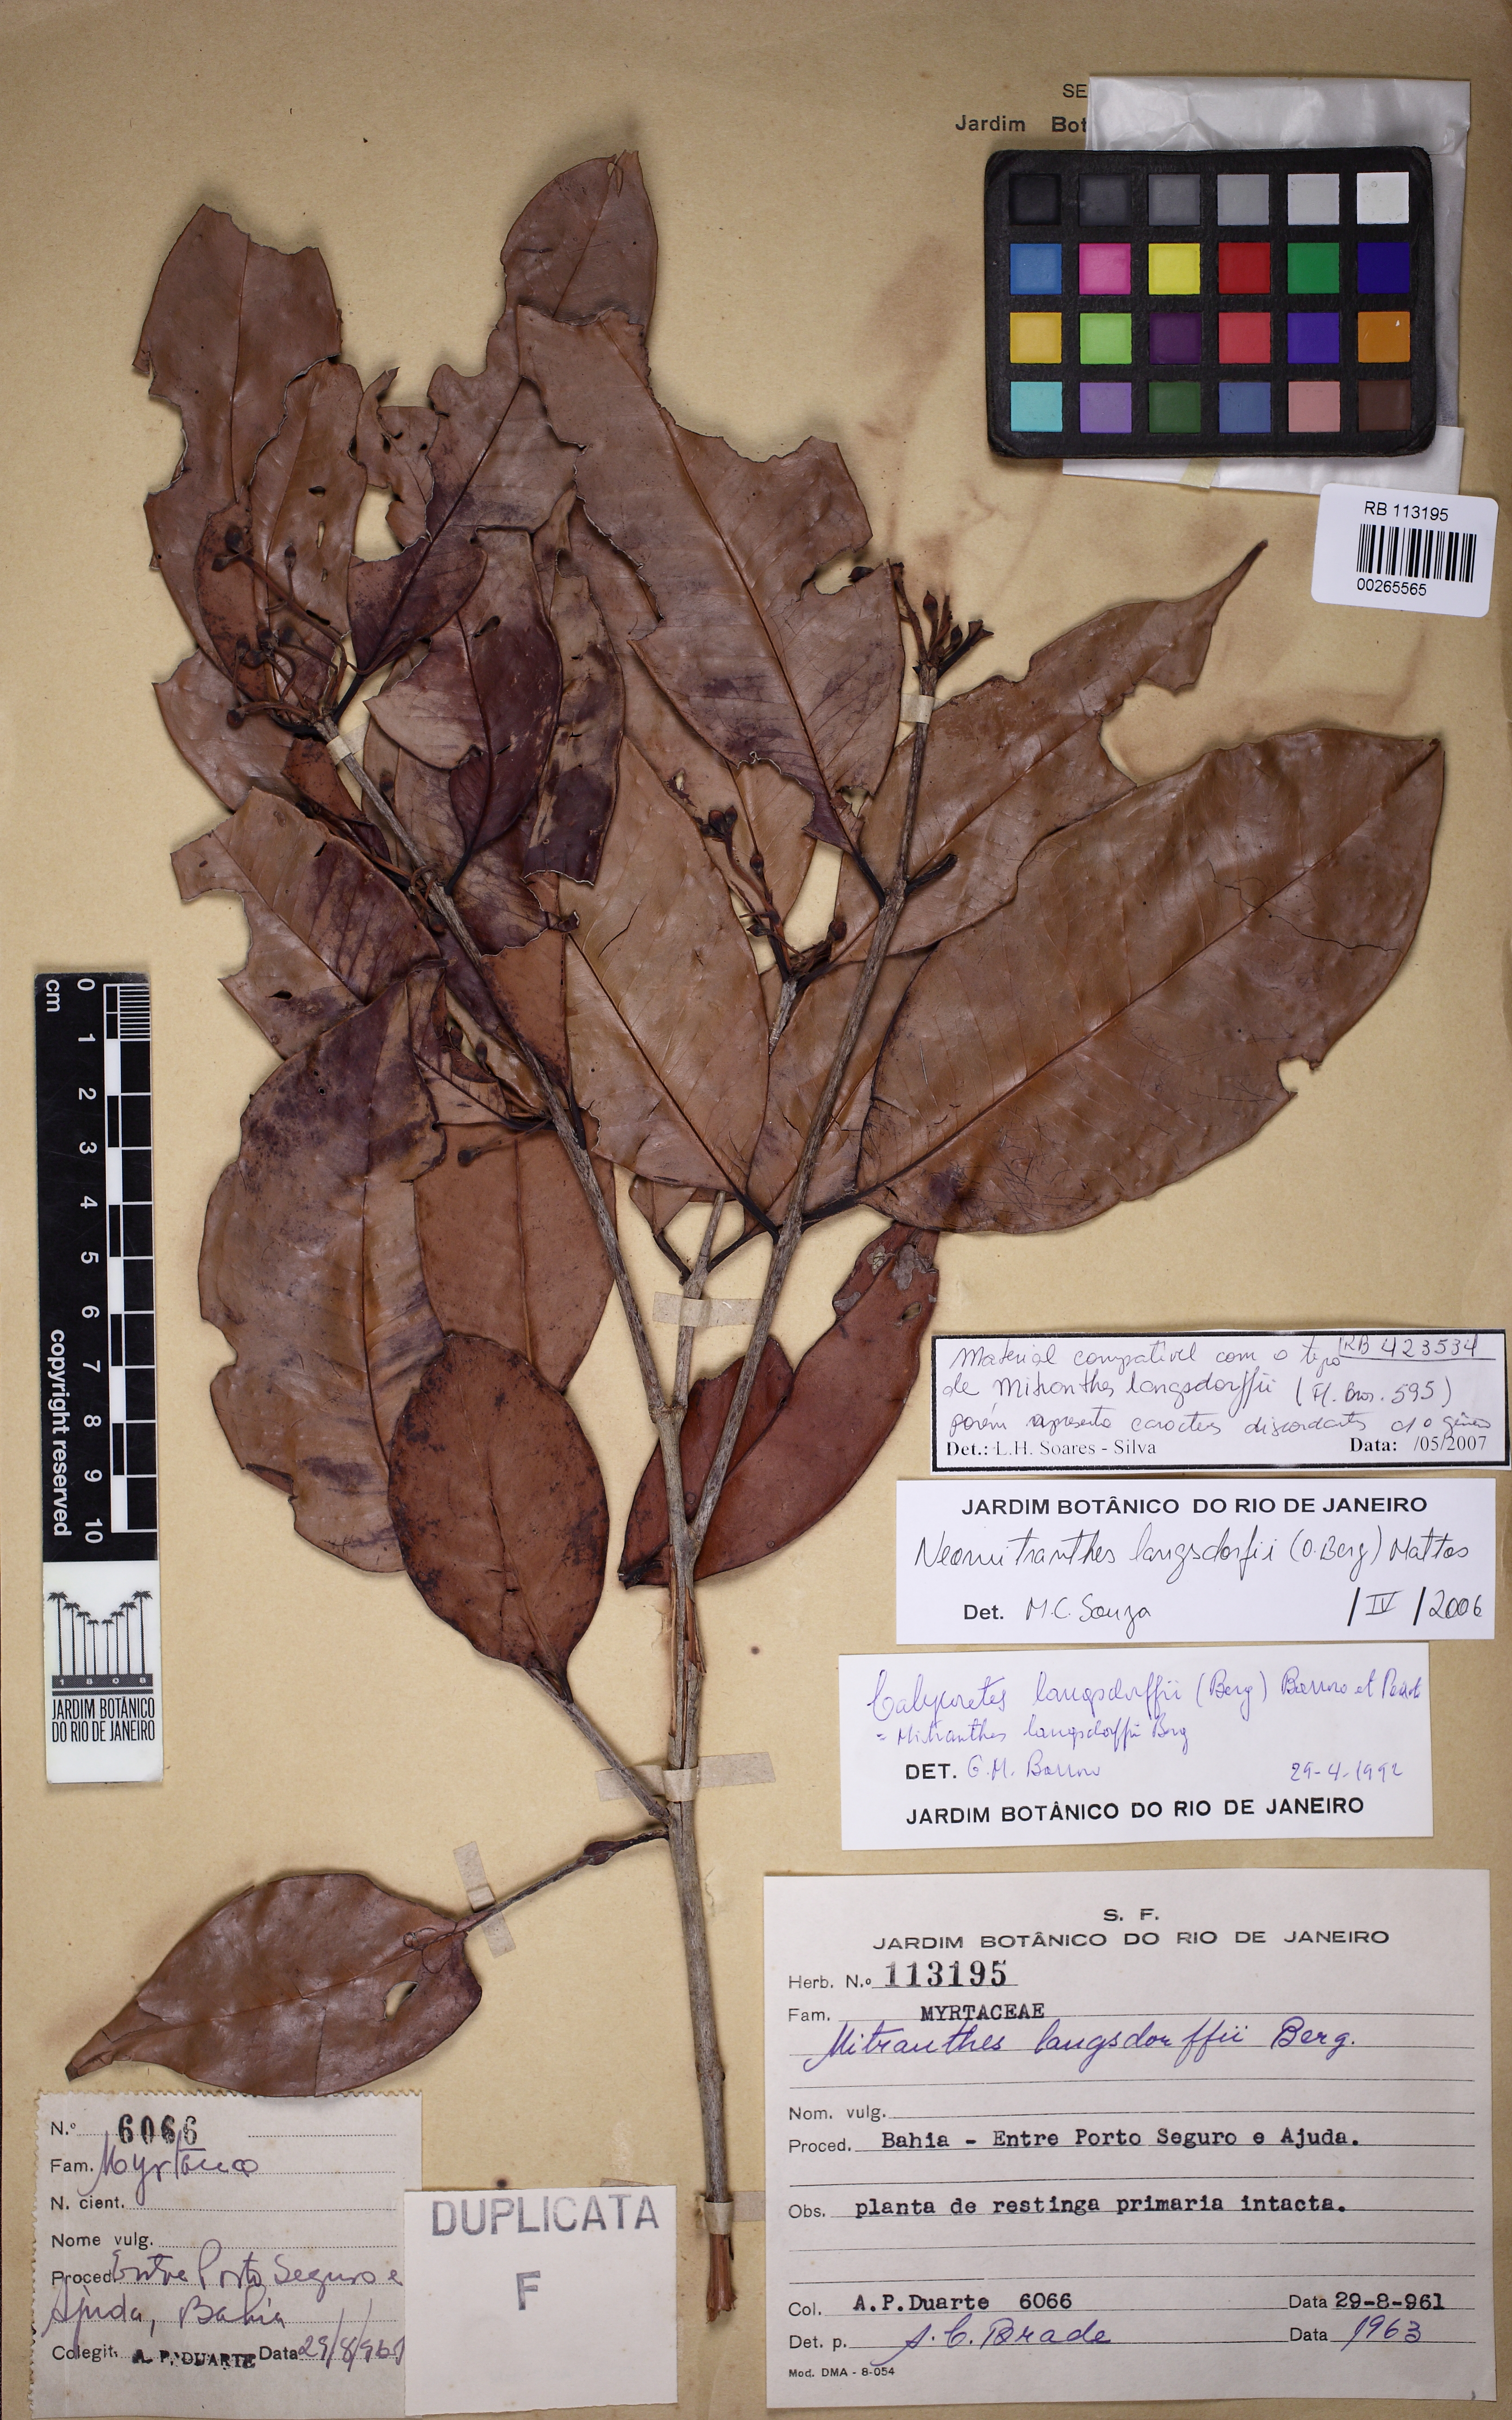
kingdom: Plantae
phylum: Tracheophyta
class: Magnoliopsida
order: Myrtales
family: Myrtaceae
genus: Eugenia
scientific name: Eugenia guanabarina
